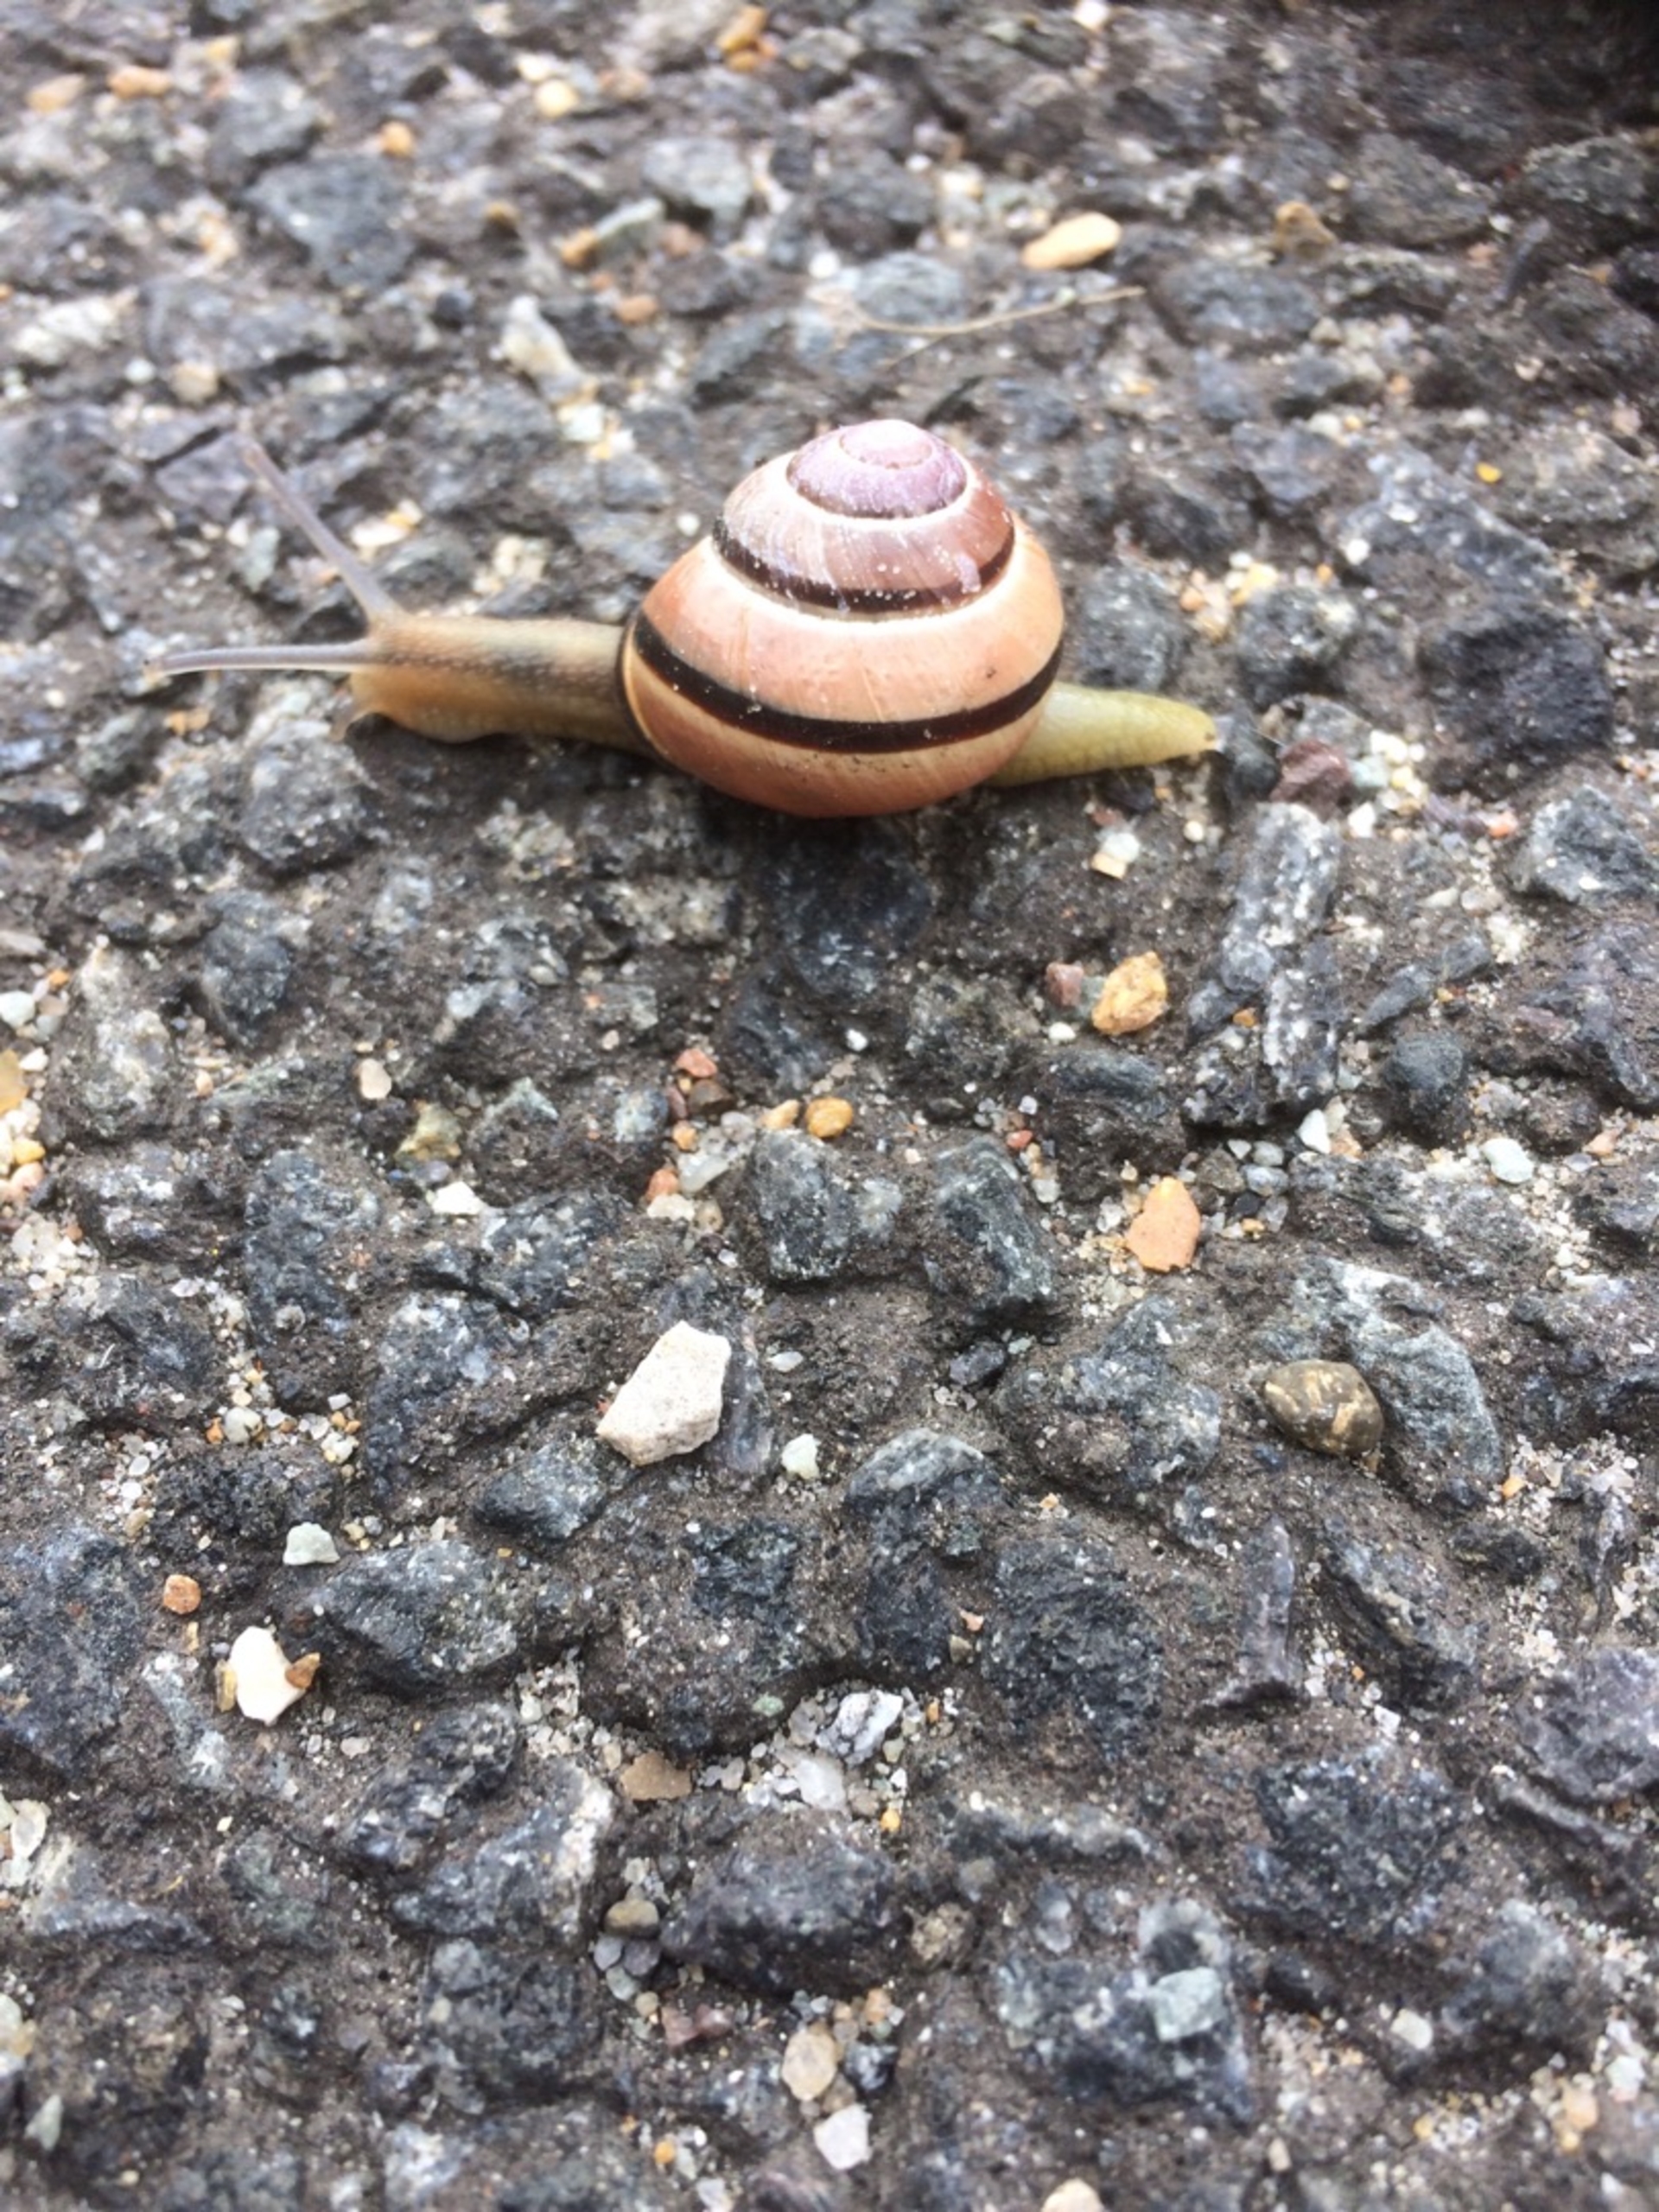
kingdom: Animalia
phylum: Mollusca
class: Gastropoda
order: Stylommatophora
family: Helicidae
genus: Cepaea
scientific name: Cepaea nemoralis
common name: Lundsnegl
